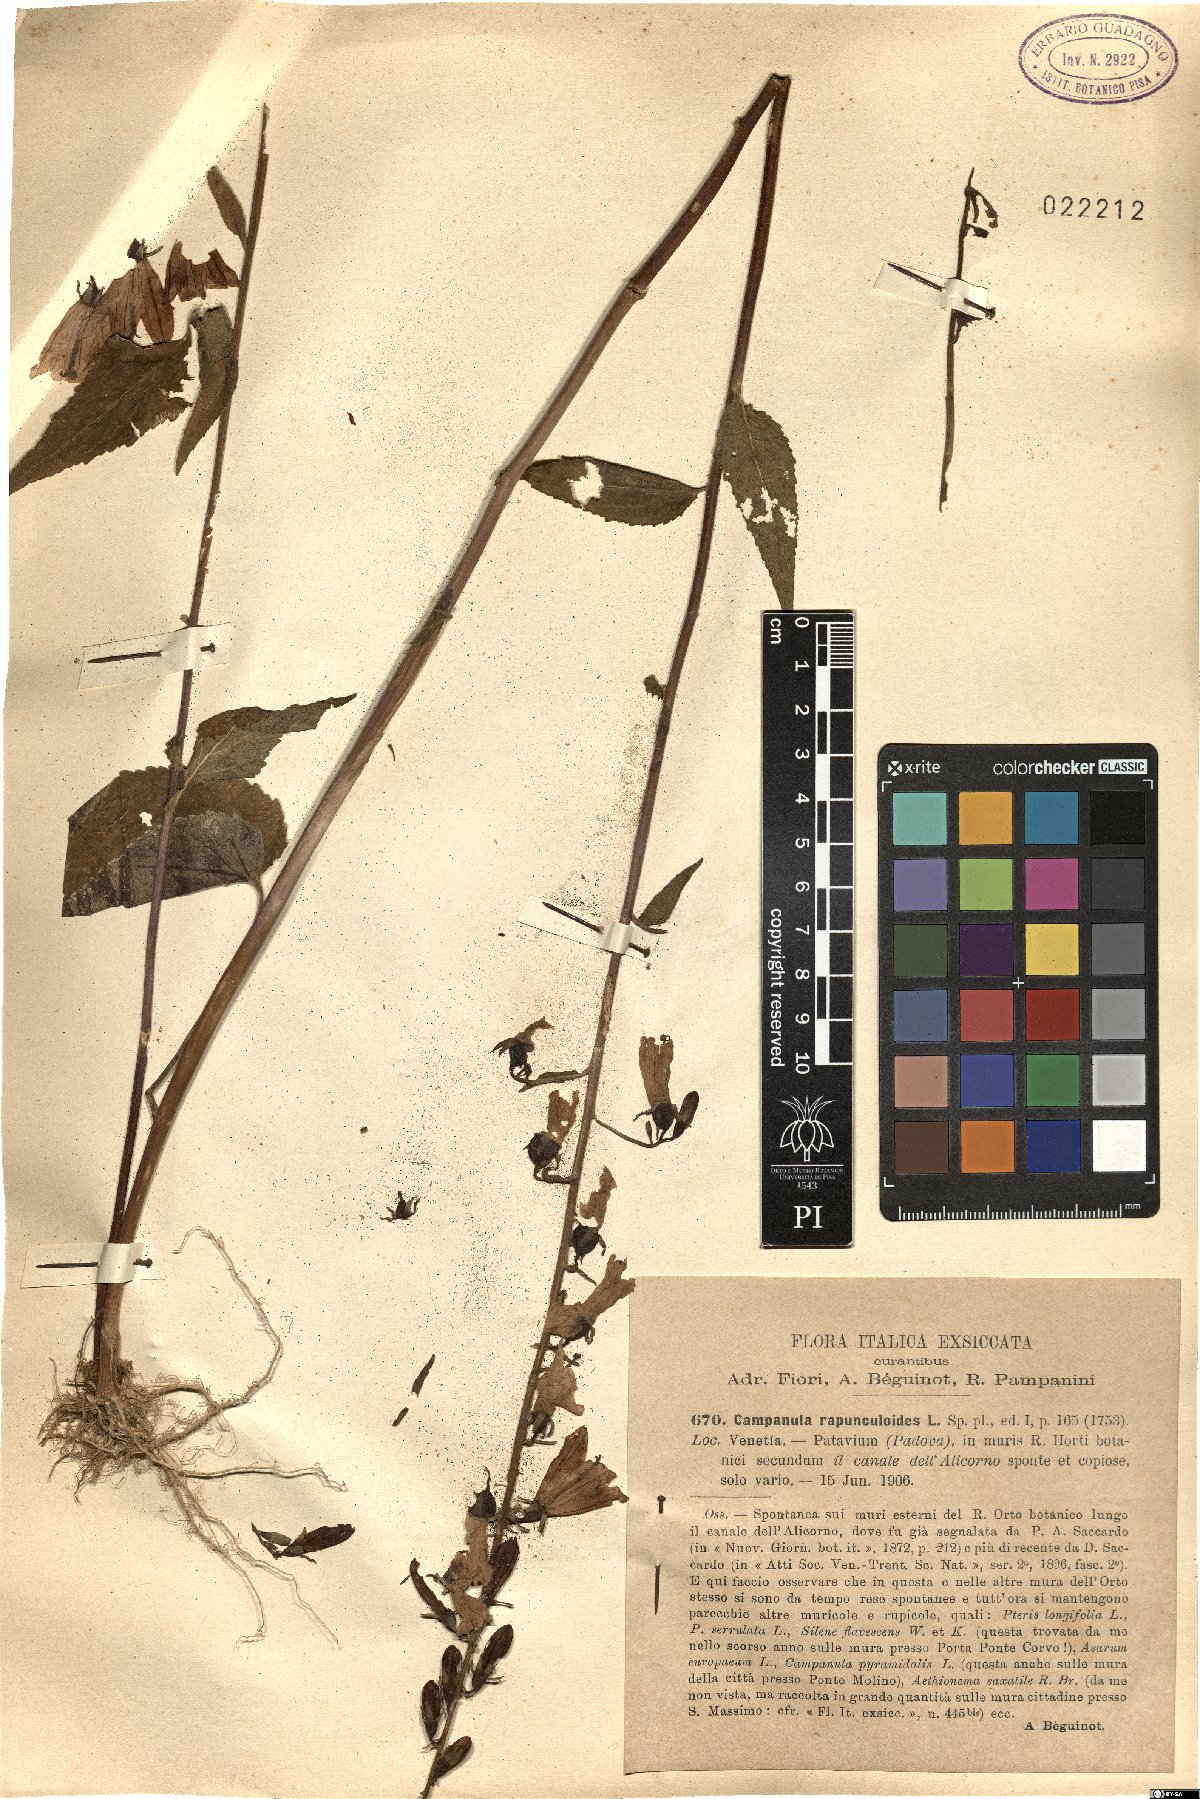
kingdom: Plantae
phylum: Tracheophyta
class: Magnoliopsida
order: Asterales
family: Campanulaceae
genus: Campanula
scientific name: Campanula rapunculoides
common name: Creeping bellflower
